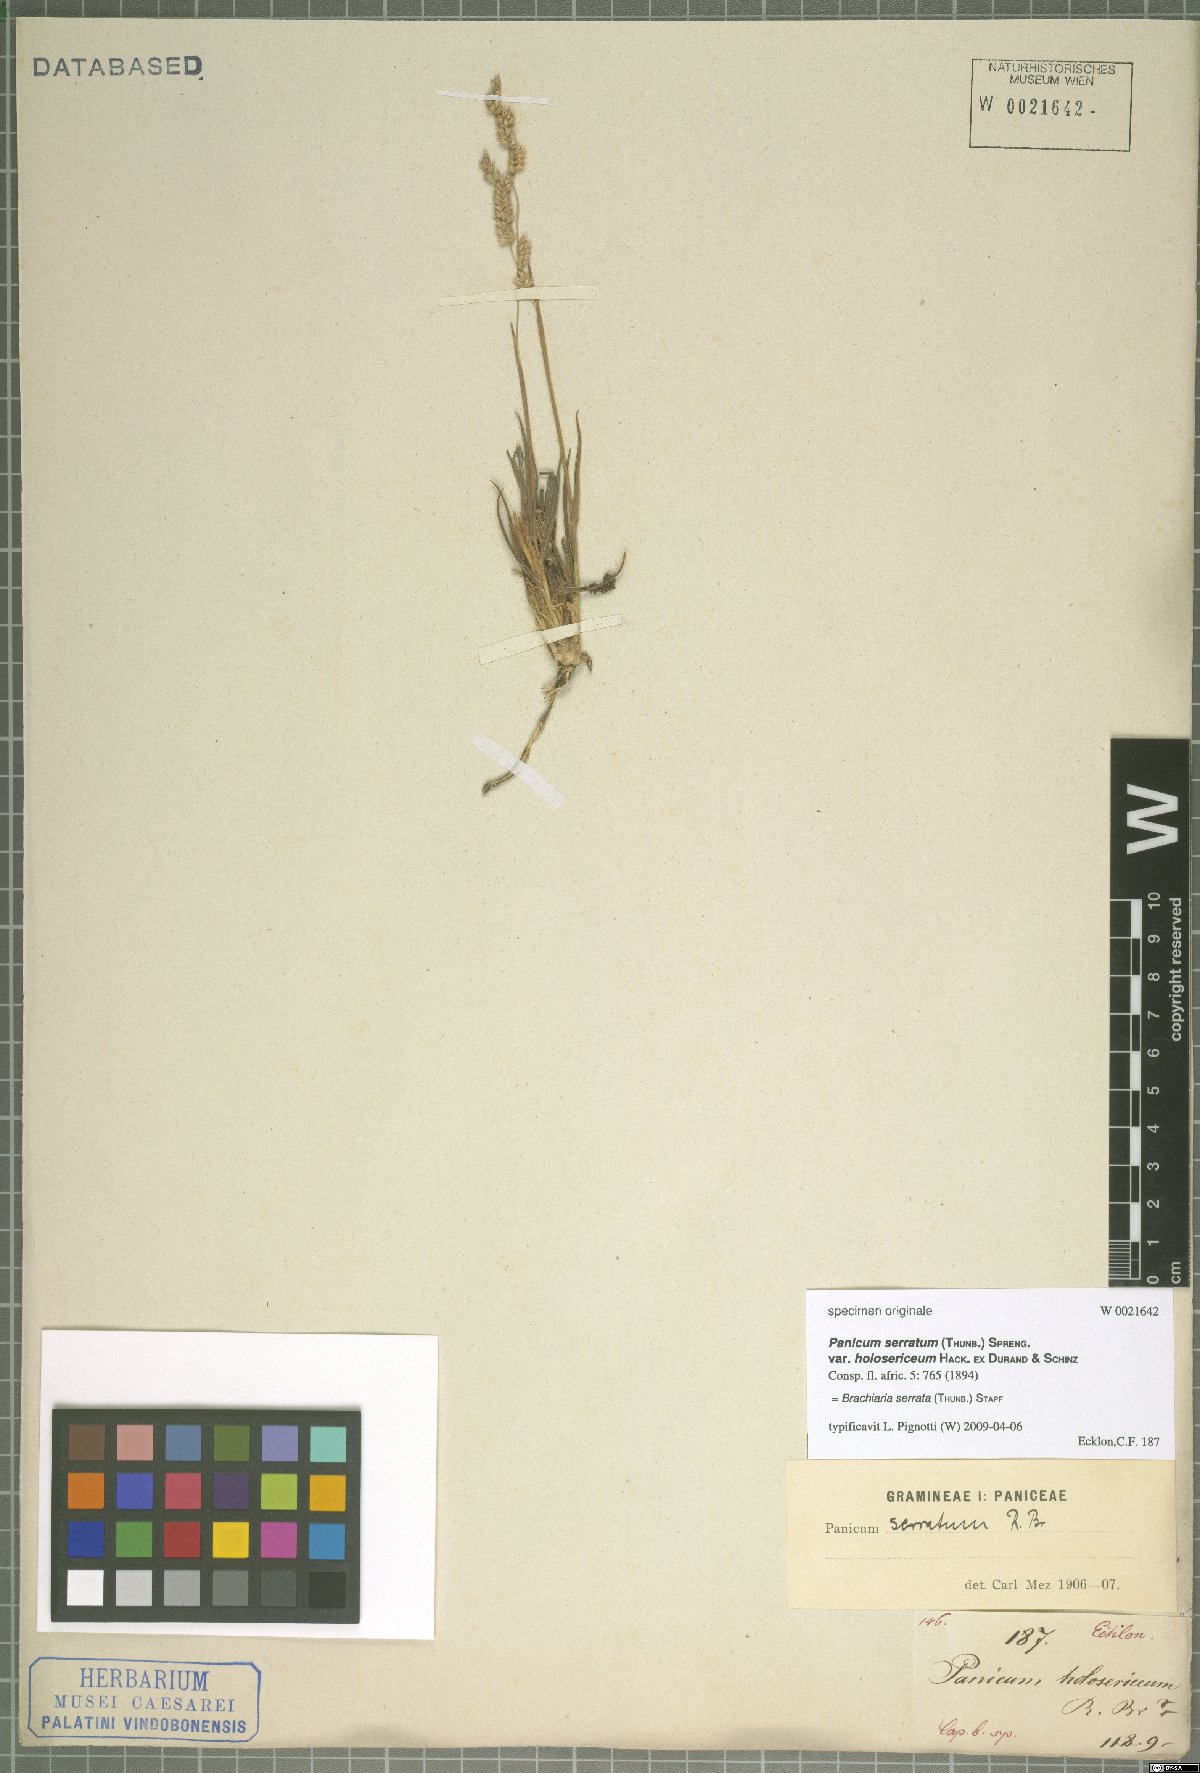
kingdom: Plantae
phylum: Tracheophyta
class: Liliopsida
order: Poales
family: Poaceae
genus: Urochloa
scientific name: Urochloa serrata
